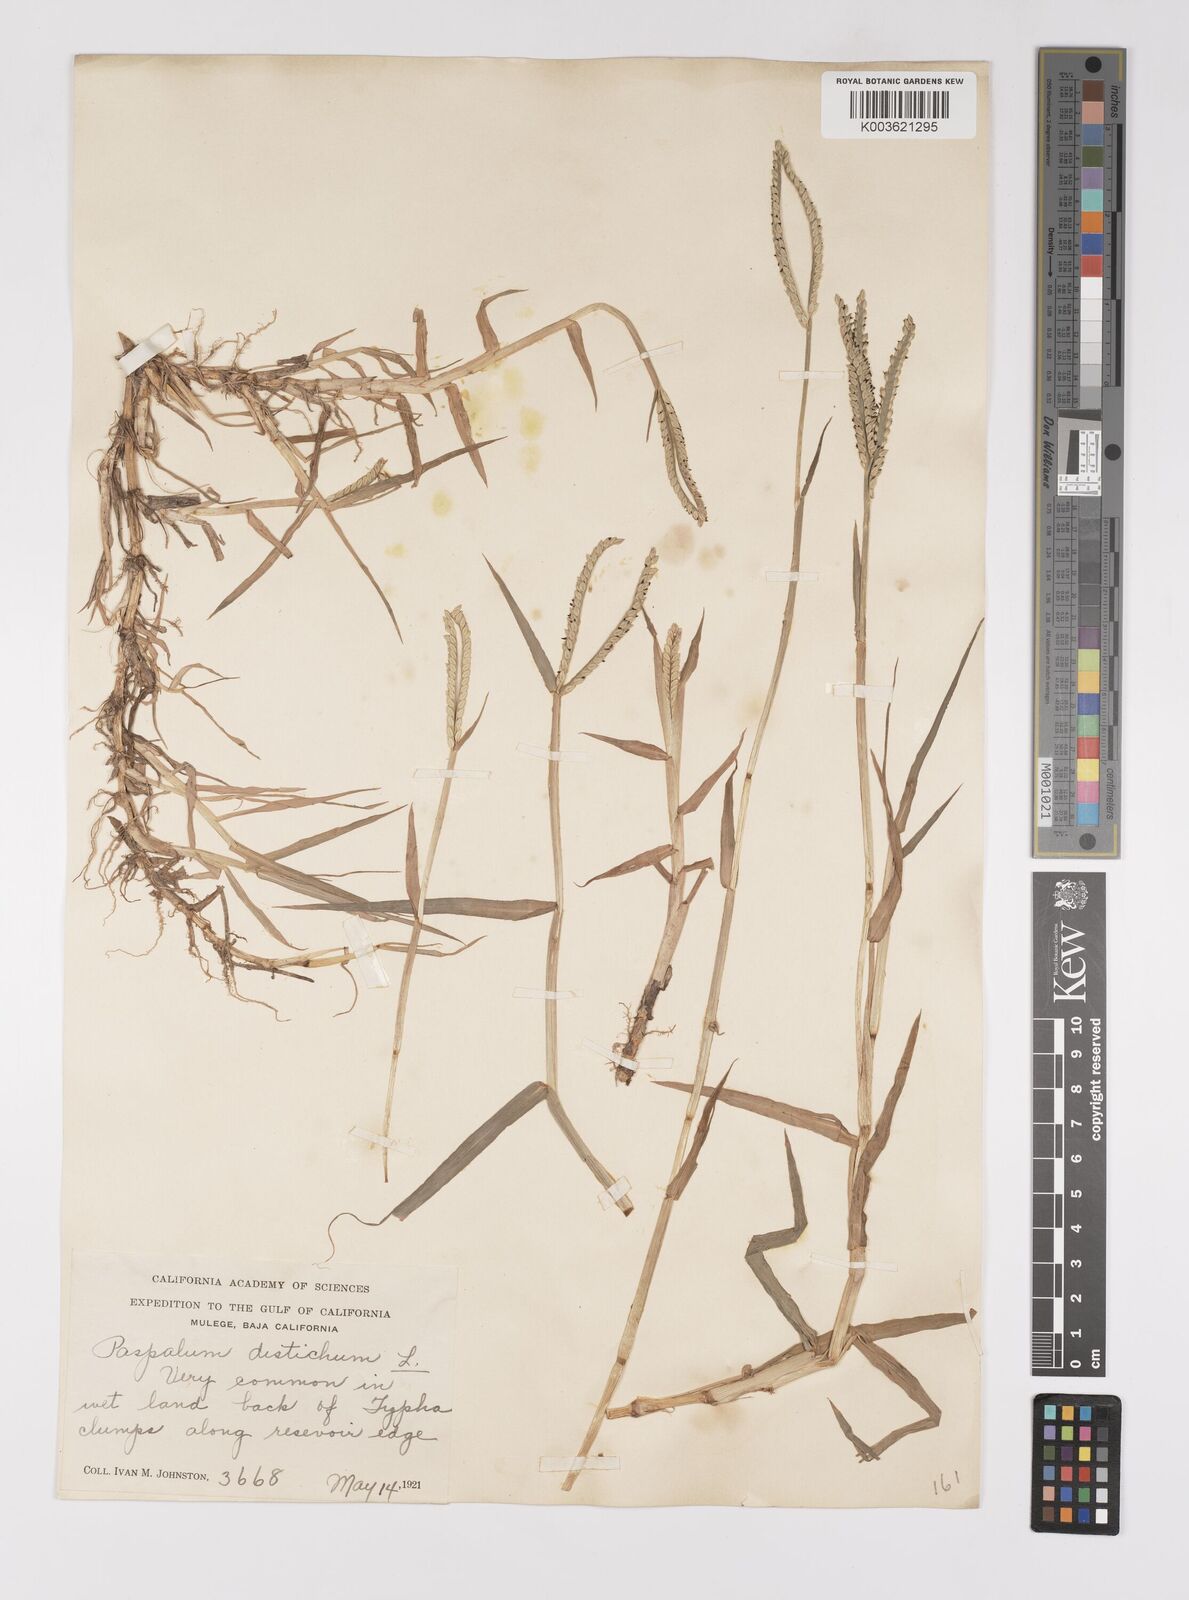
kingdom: Plantae
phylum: Tracheophyta
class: Liliopsida
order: Poales
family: Poaceae
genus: Paspalum
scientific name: Paspalum distichum
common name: Knotgrass
